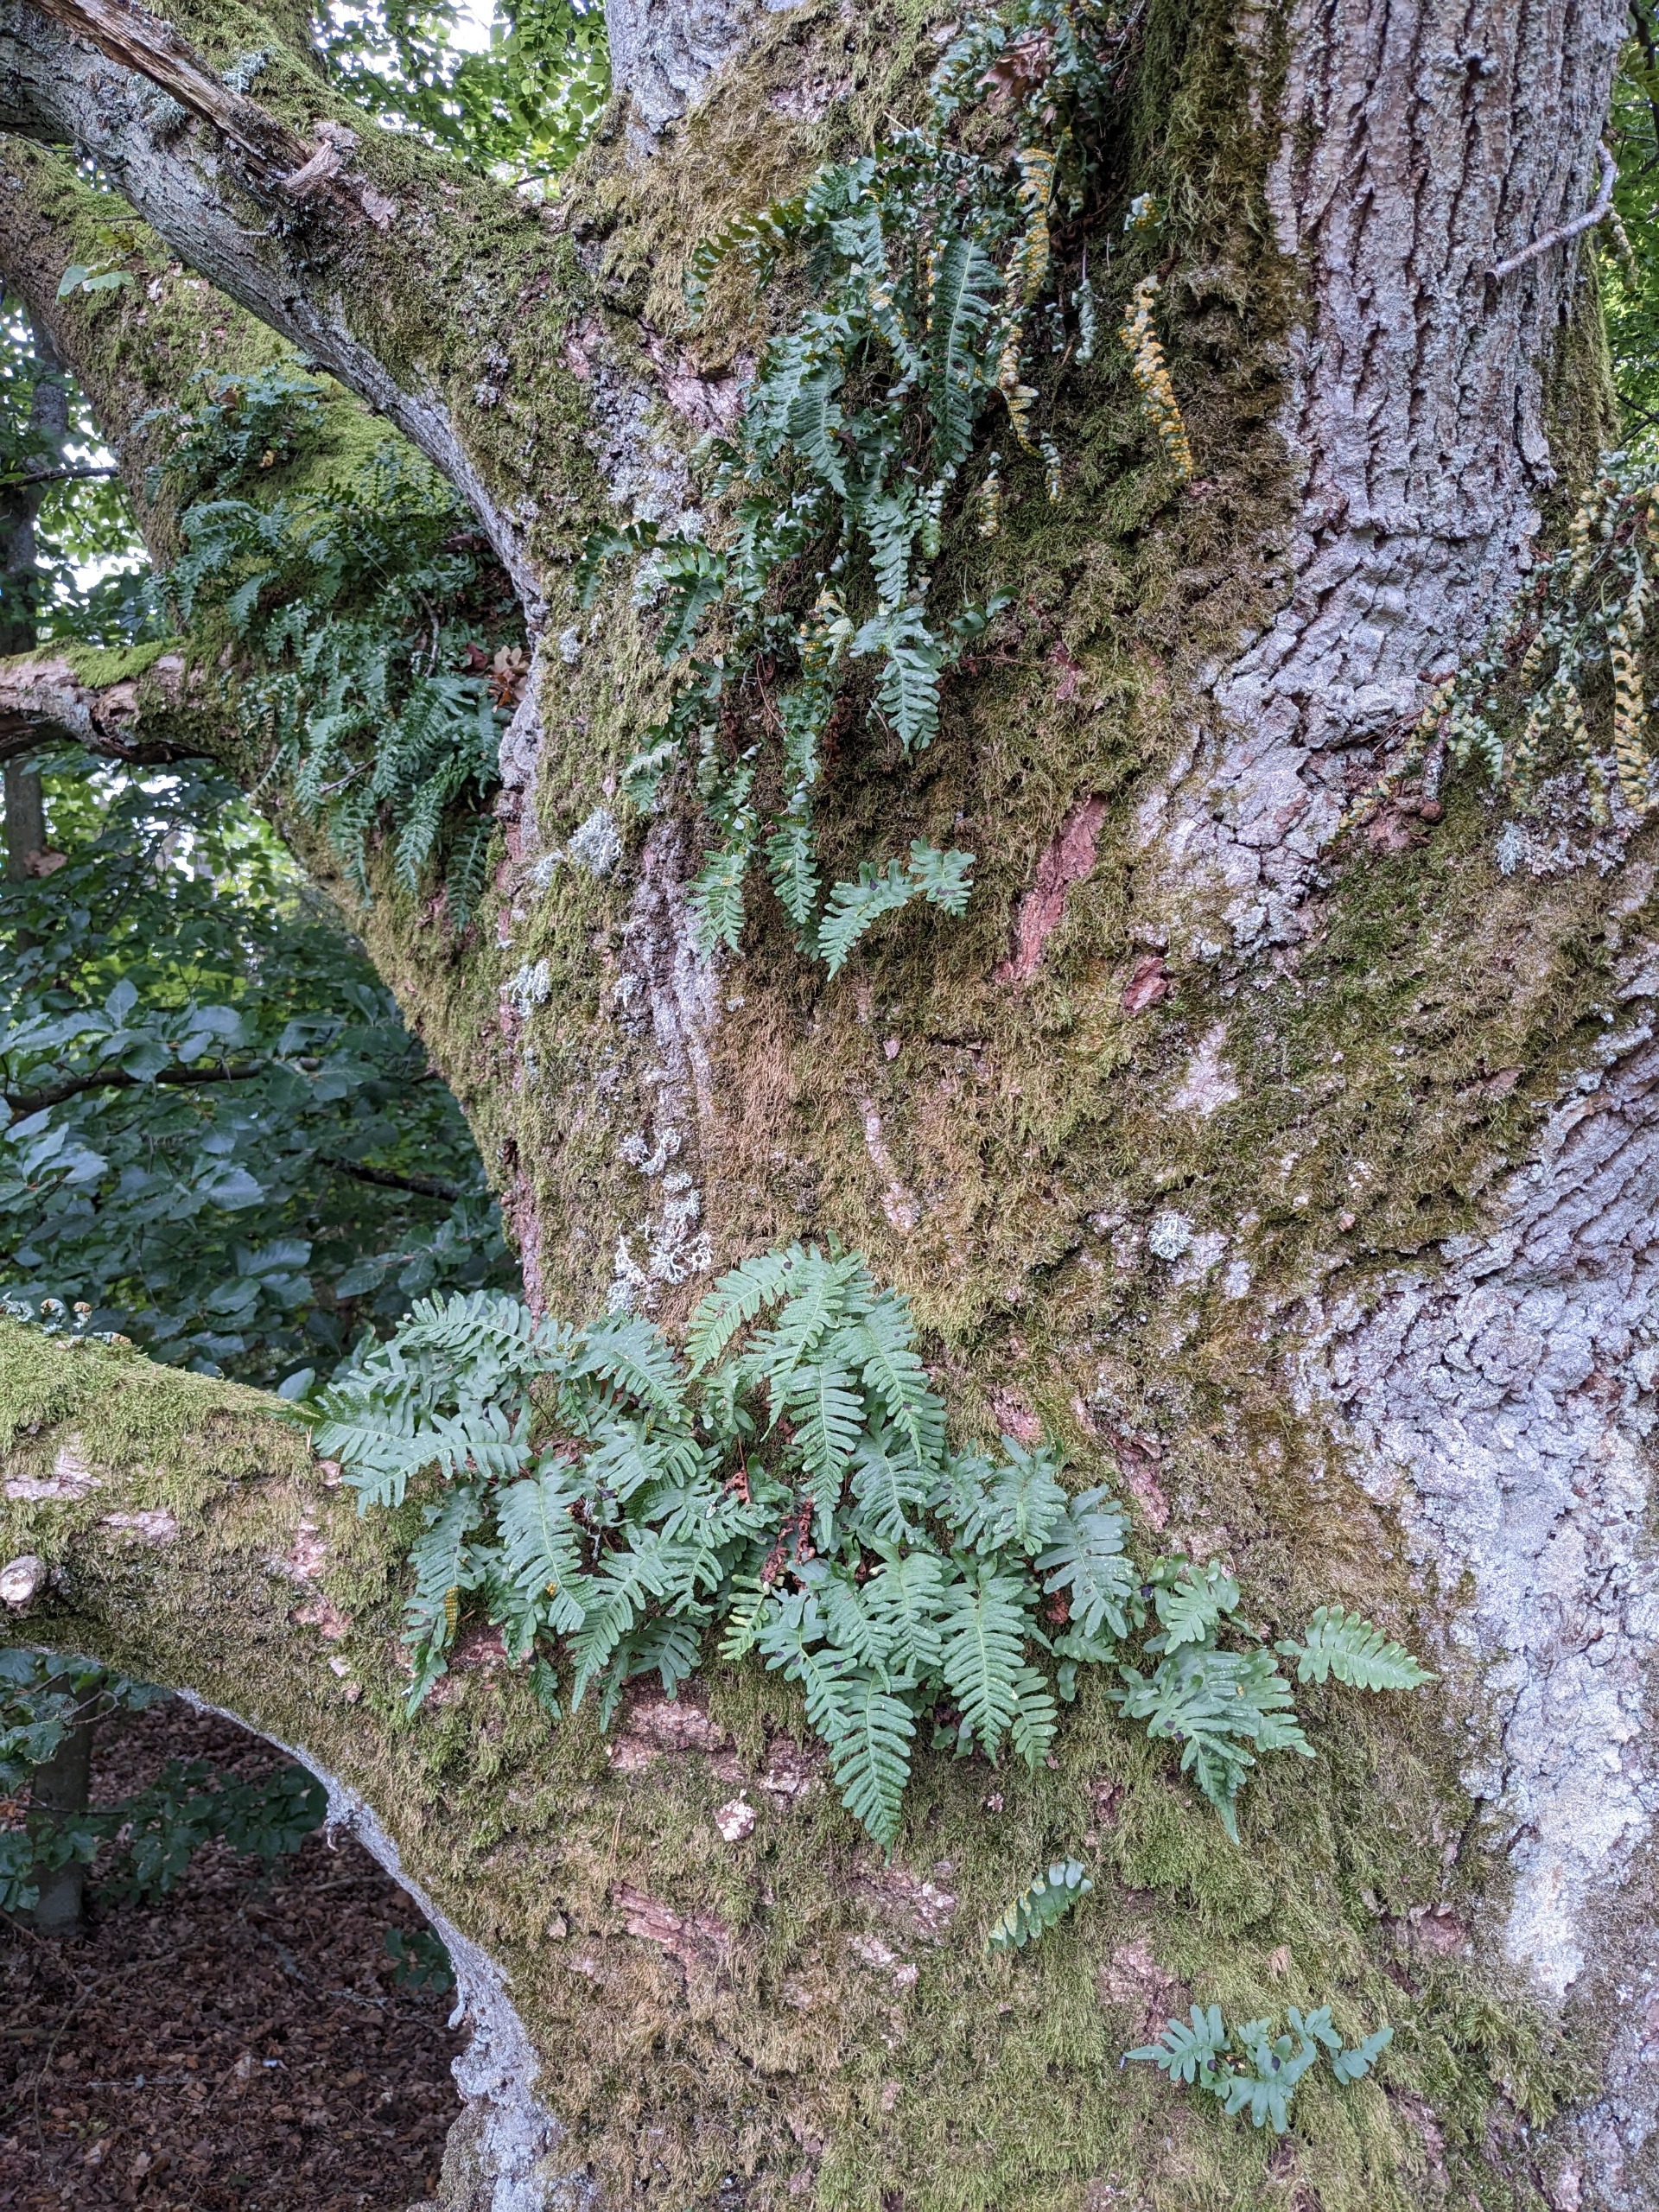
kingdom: Plantae
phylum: Tracheophyta
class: Polypodiopsida
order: Polypodiales
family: Polypodiaceae
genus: Polypodium
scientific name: Polypodium vulgare
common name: Almindelig engelsød
